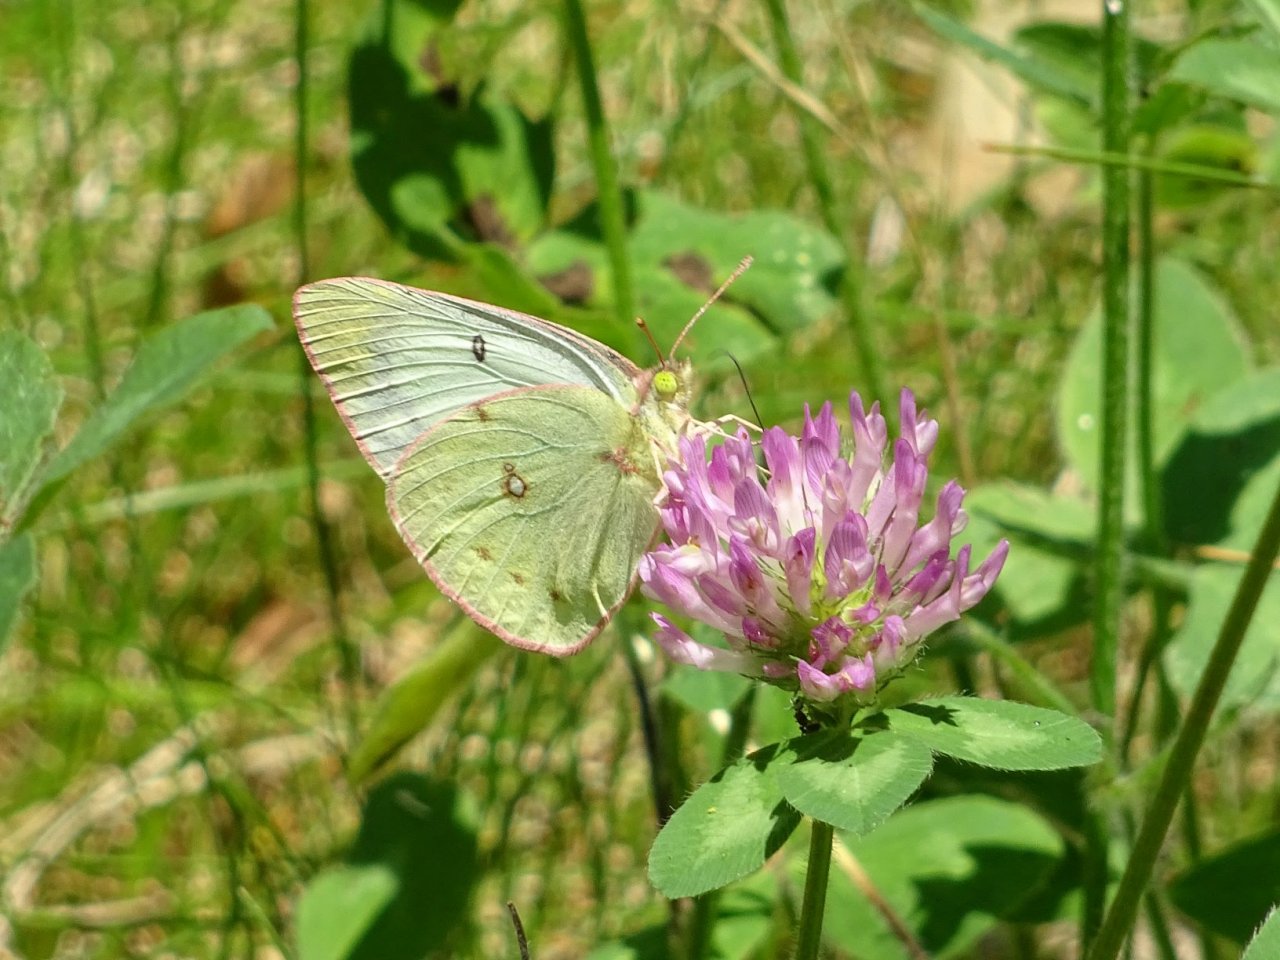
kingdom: Animalia
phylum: Arthropoda
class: Insecta
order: Lepidoptera
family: Pieridae
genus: Colias
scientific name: Colias philodice
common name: Clouded Sulphur
